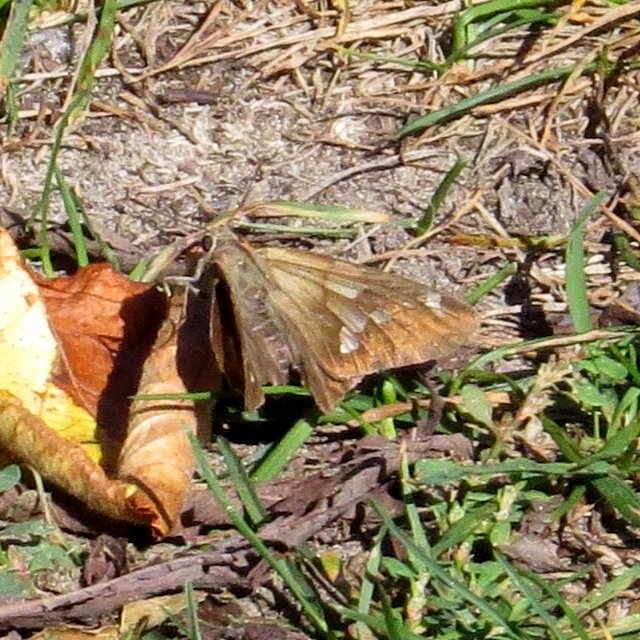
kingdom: Animalia
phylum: Arthropoda
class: Insecta
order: Lepidoptera
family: Hesperiidae
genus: Epargyreus
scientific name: Epargyreus clarus
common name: Silver-spotted Skipper
